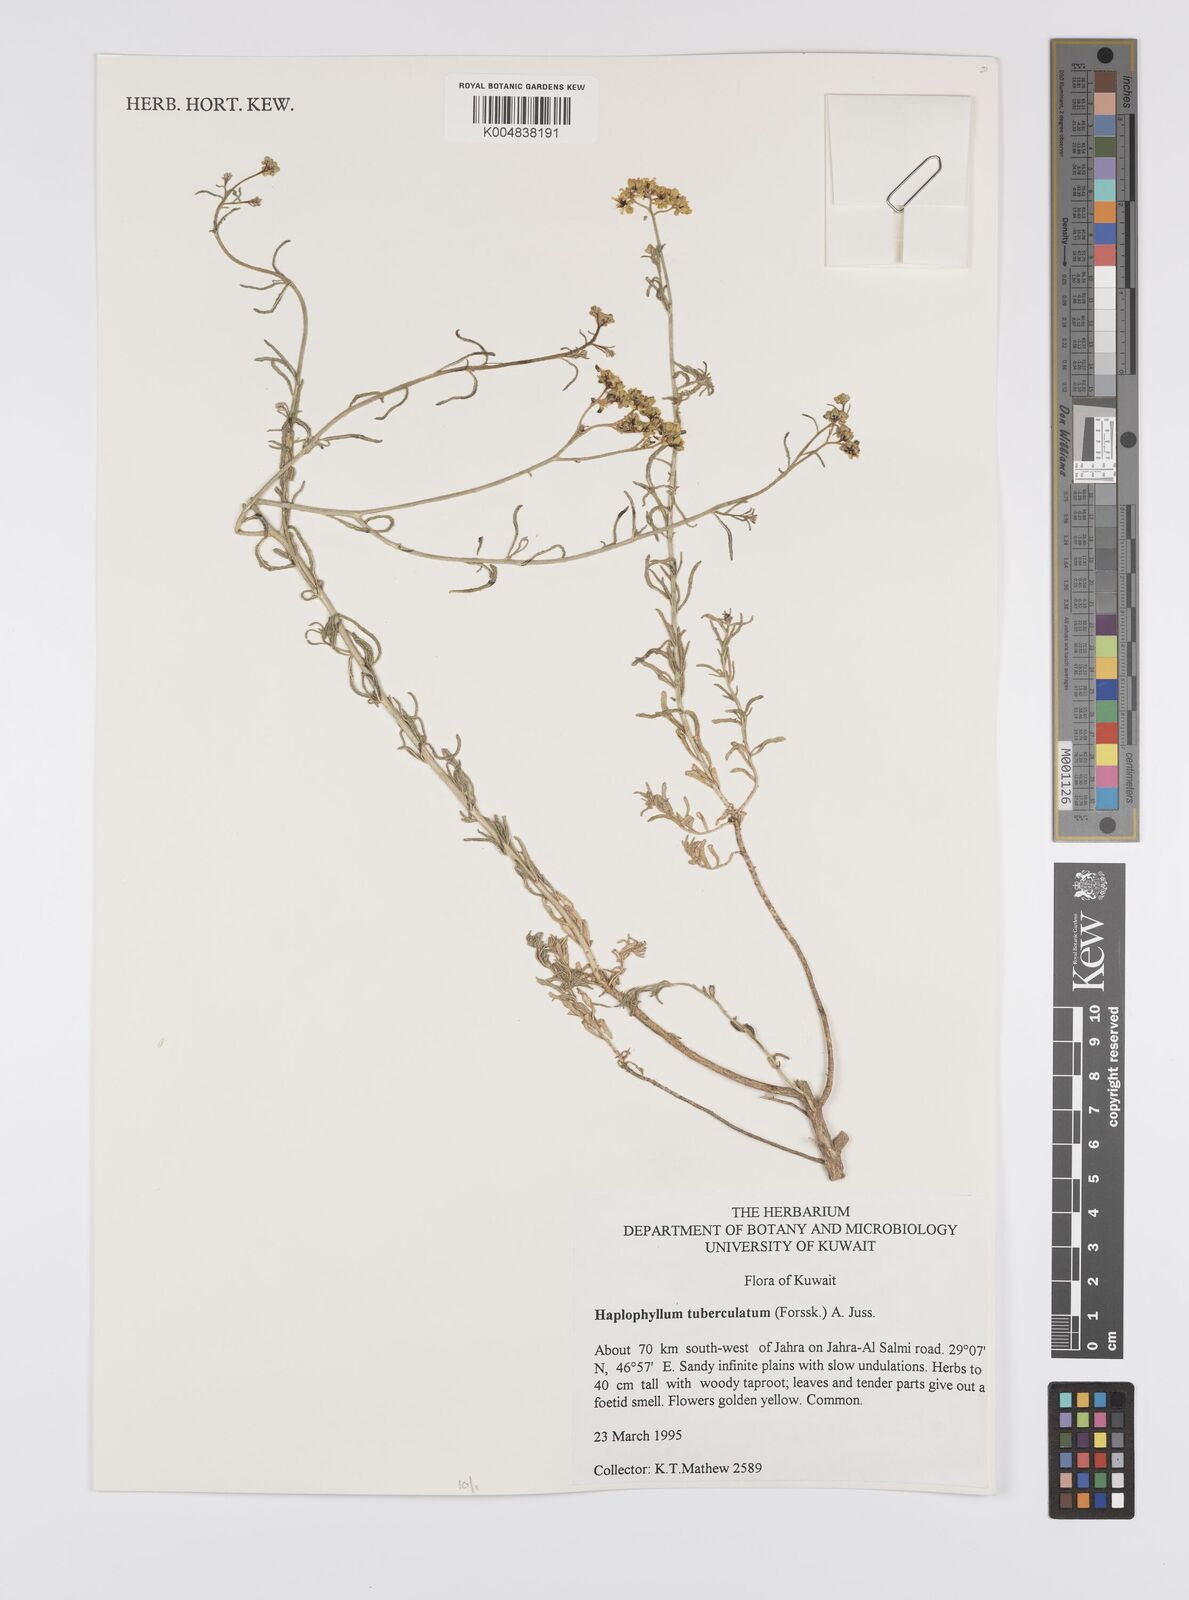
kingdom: Plantae
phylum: Tracheophyta
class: Magnoliopsida
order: Sapindales
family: Rutaceae
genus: Haplophyllum
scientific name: Haplophyllum tuberculatum
